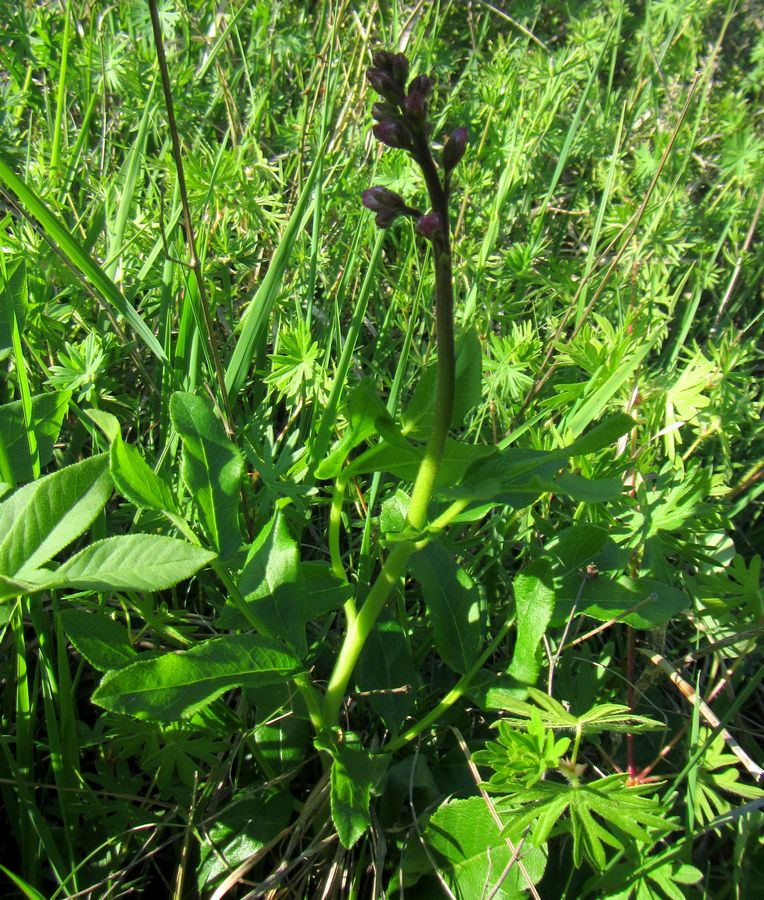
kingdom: Plantae
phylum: Tracheophyta
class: Magnoliopsida
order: Sapindales
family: Rutaceae
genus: Dictamnus
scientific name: Dictamnus albus
